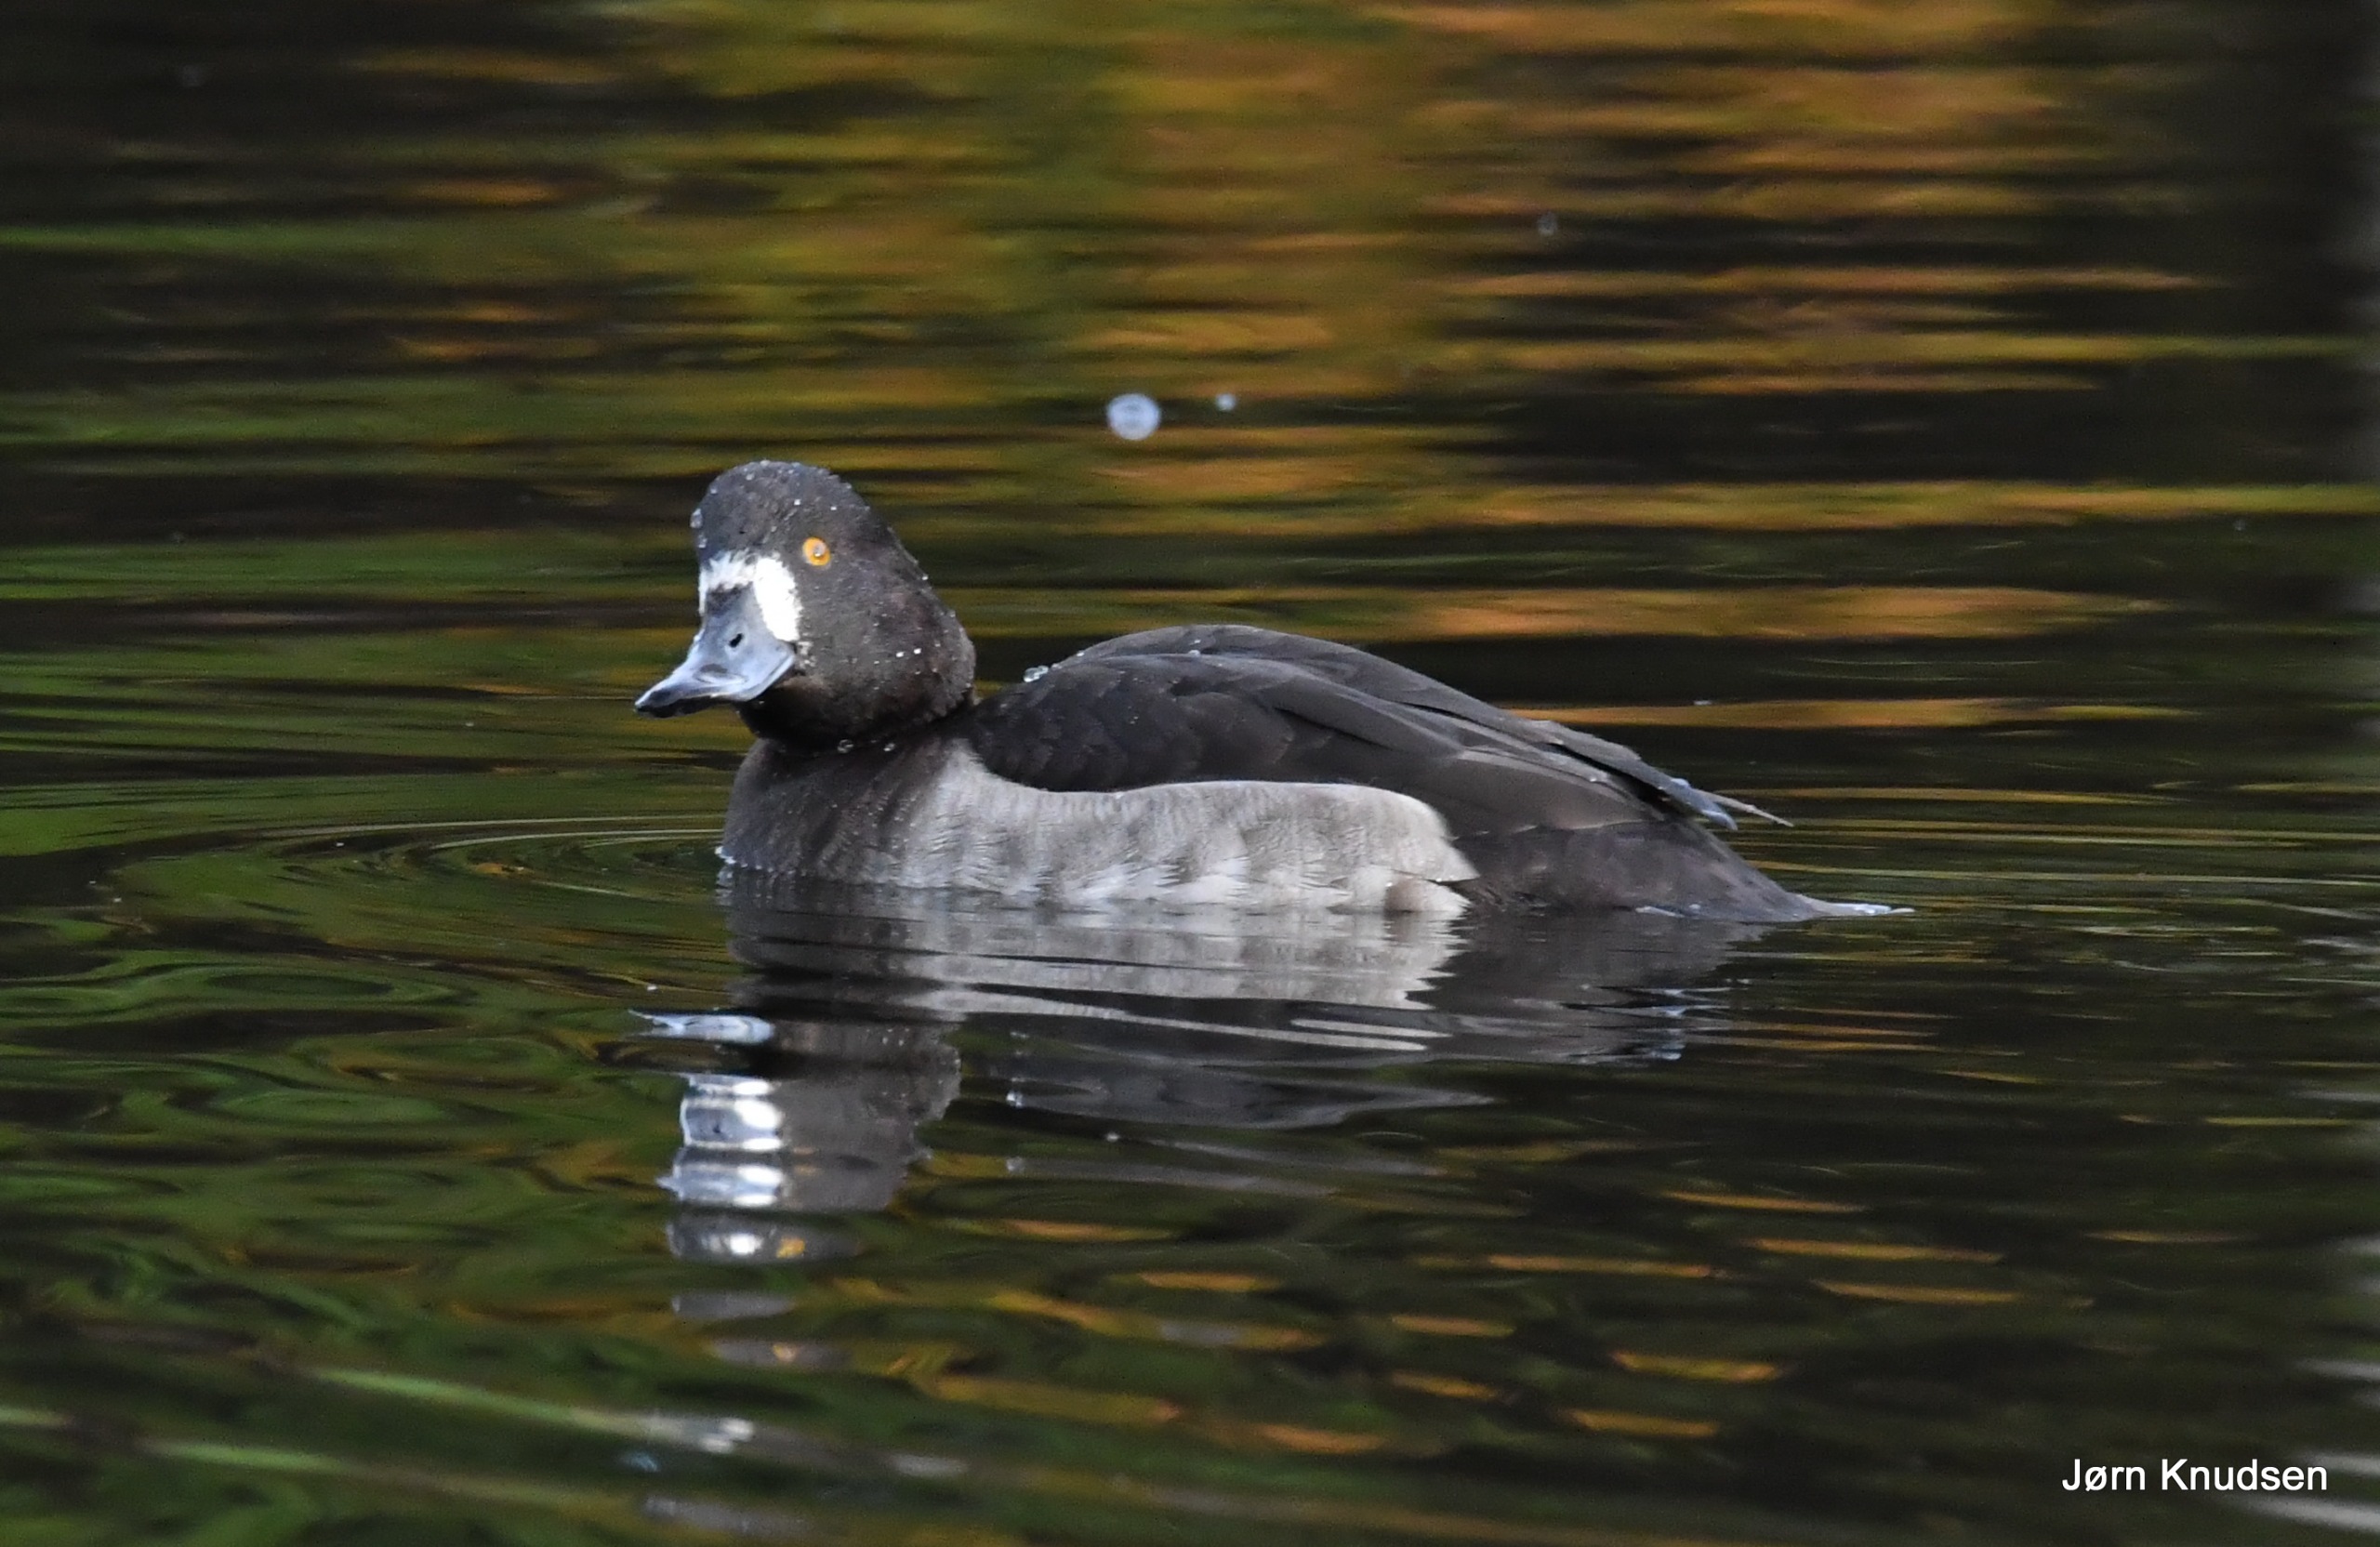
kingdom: Animalia
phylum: Chordata
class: Aves
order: Anseriformes
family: Anatidae
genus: Aythya
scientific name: Aythya fuligula
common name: Troldand
